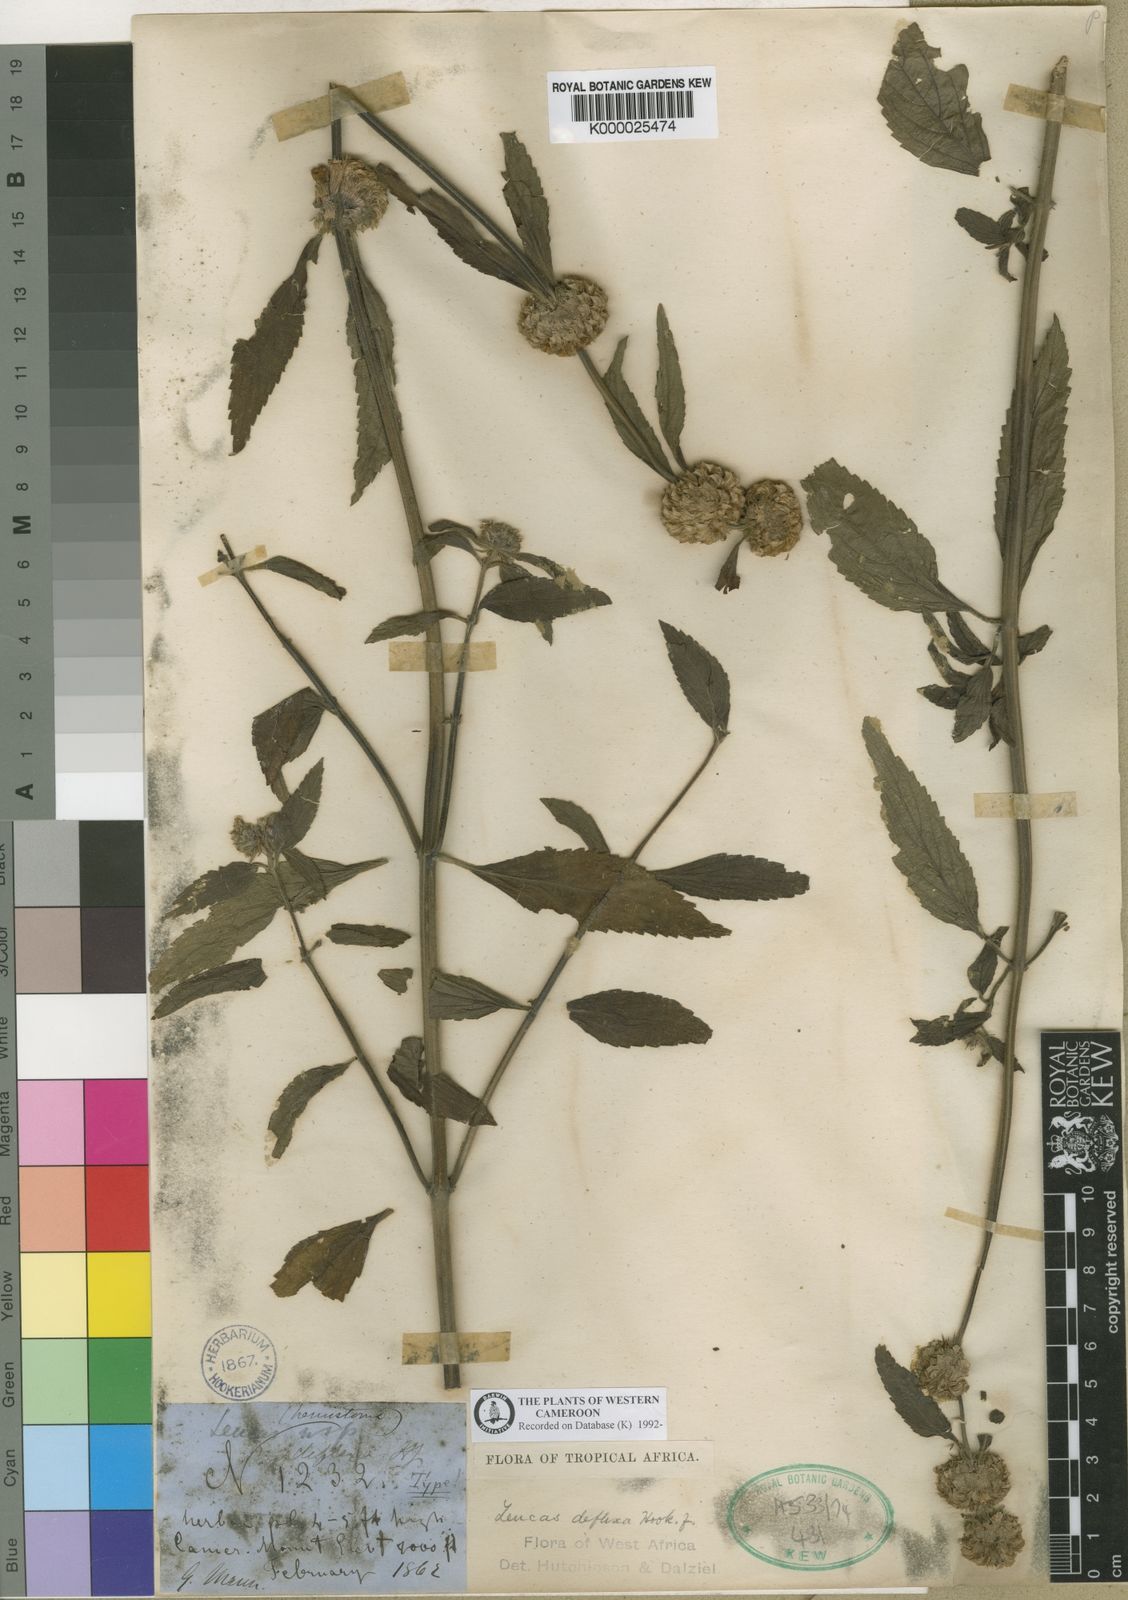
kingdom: Plantae
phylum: Tracheophyta
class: Magnoliopsida
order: Lamiales
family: Lamiaceae
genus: Leucas
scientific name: Leucas deflexa
